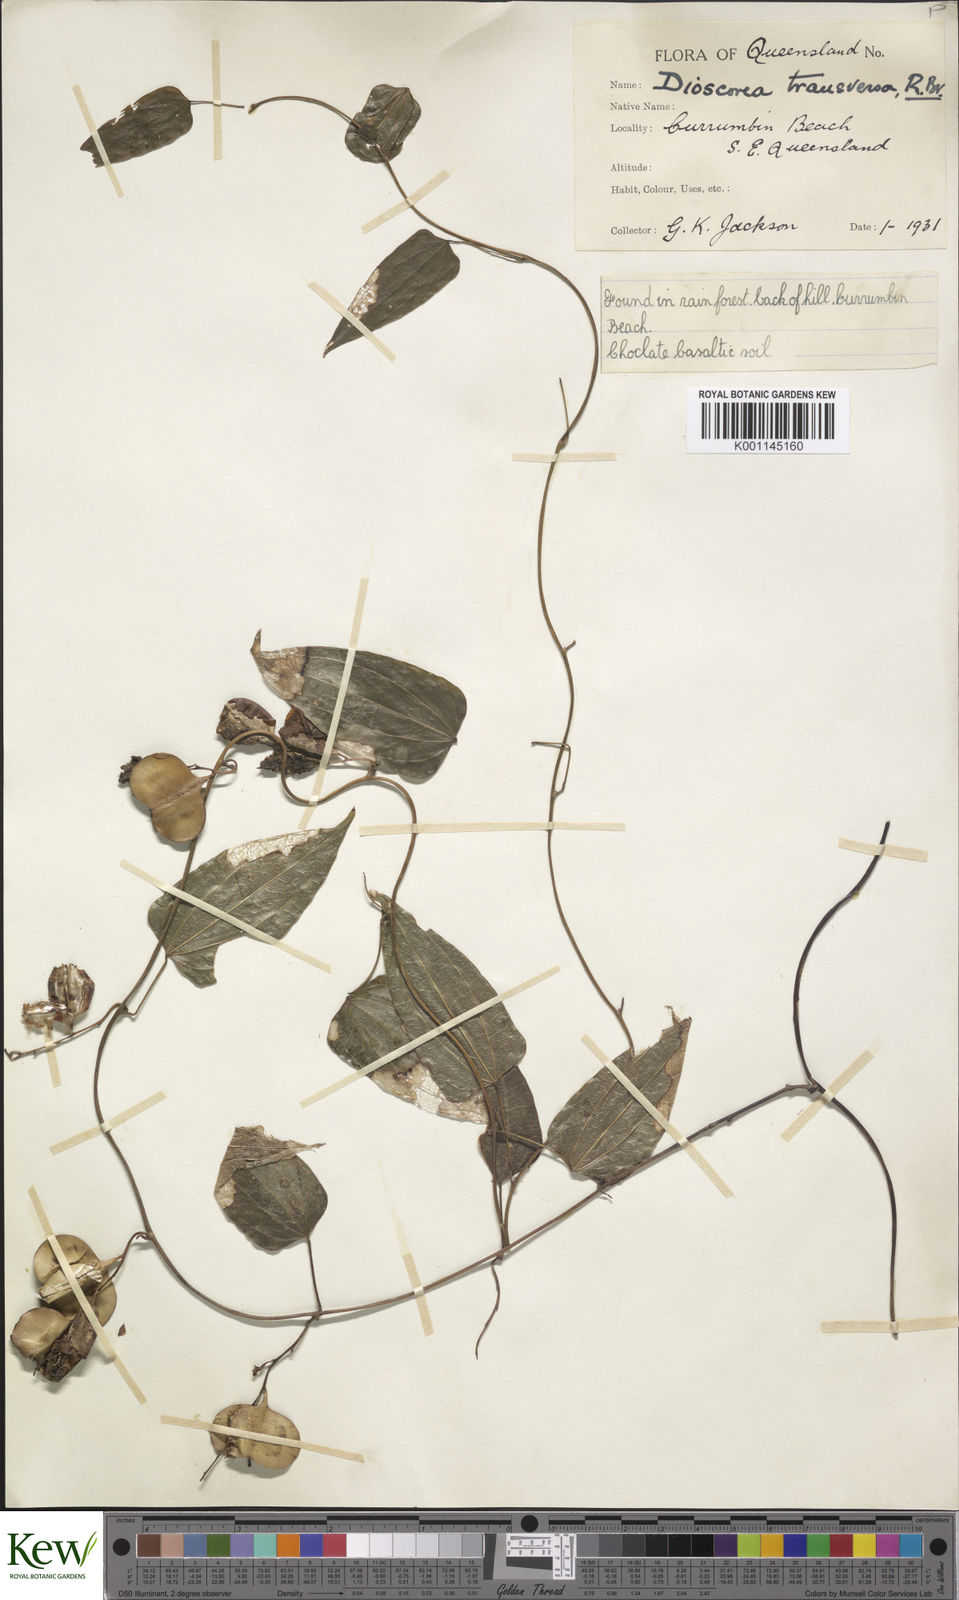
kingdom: Plantae
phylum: Tracheophyta
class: Liliopsida
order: Dioscoreales
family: Dioscoreaceae
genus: Dioscorea
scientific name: Dioscorea transversa
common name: Long yam
